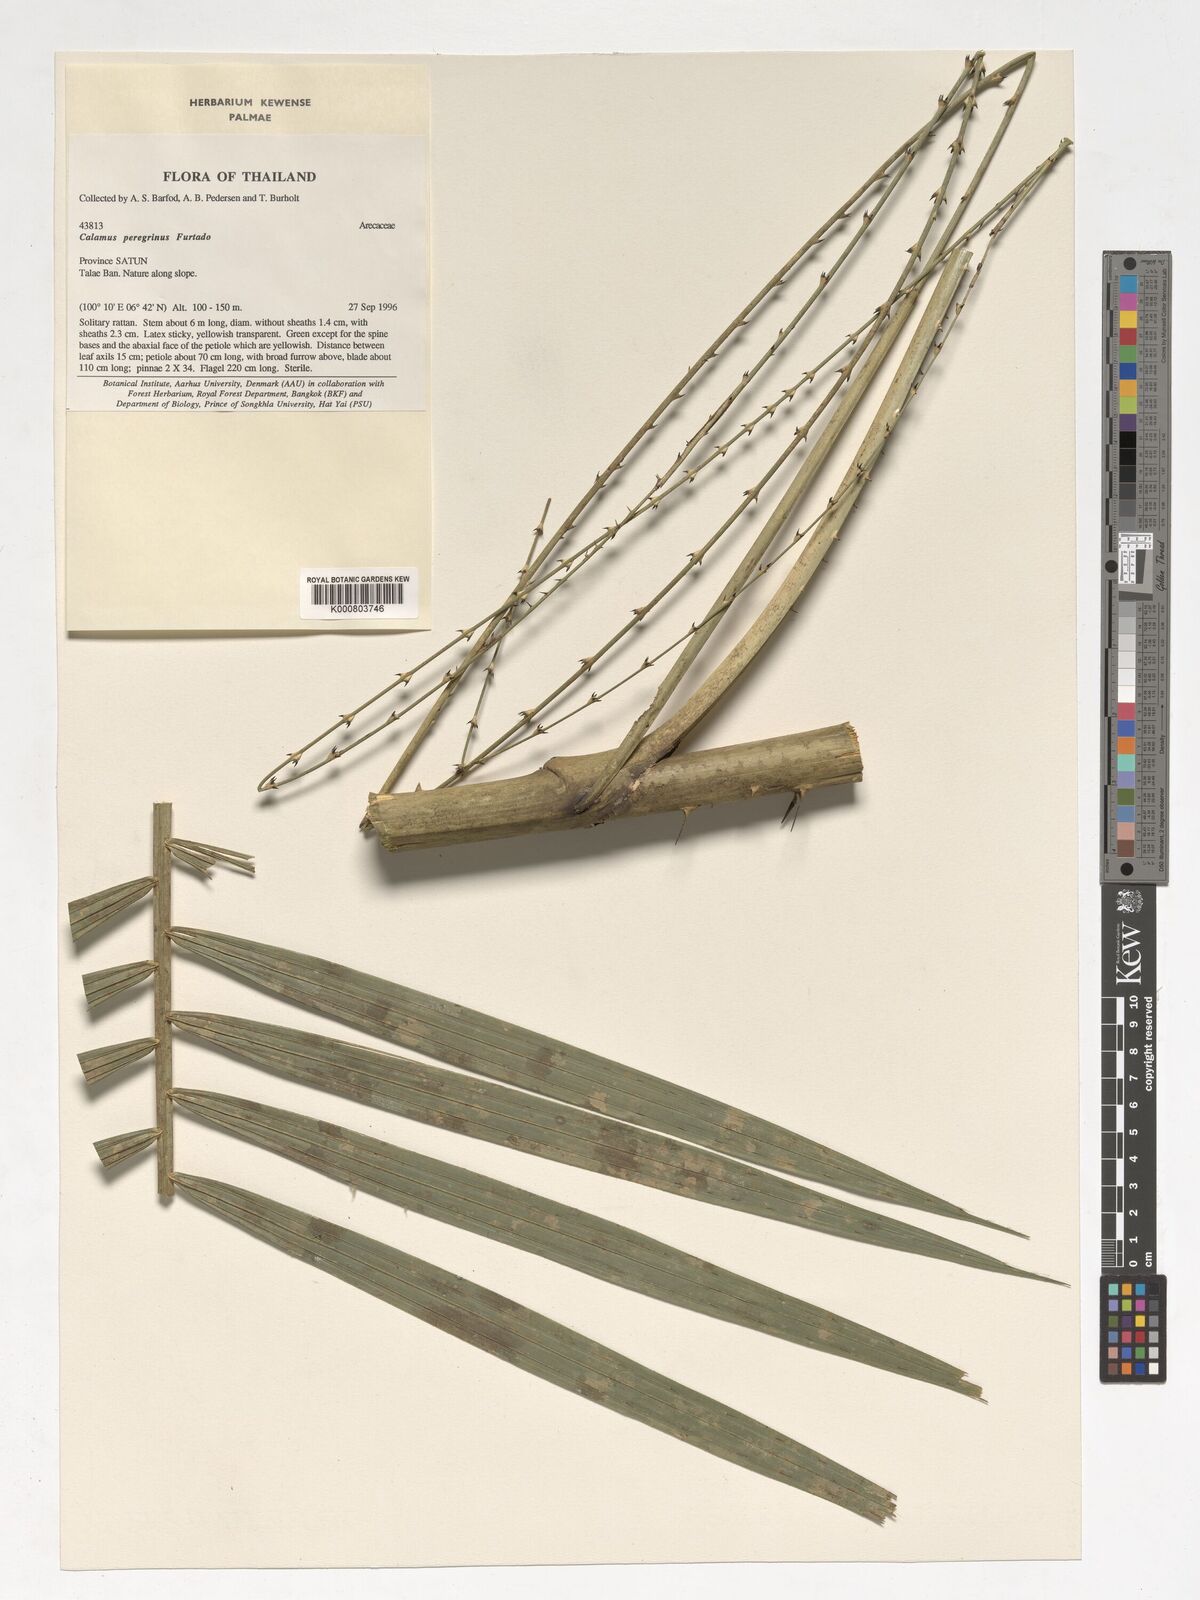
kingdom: Plantae
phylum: Tracheophyta
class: Liliopsida
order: Arecales
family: Arecaceae
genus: Calamus
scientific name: Calamus peregrinus
